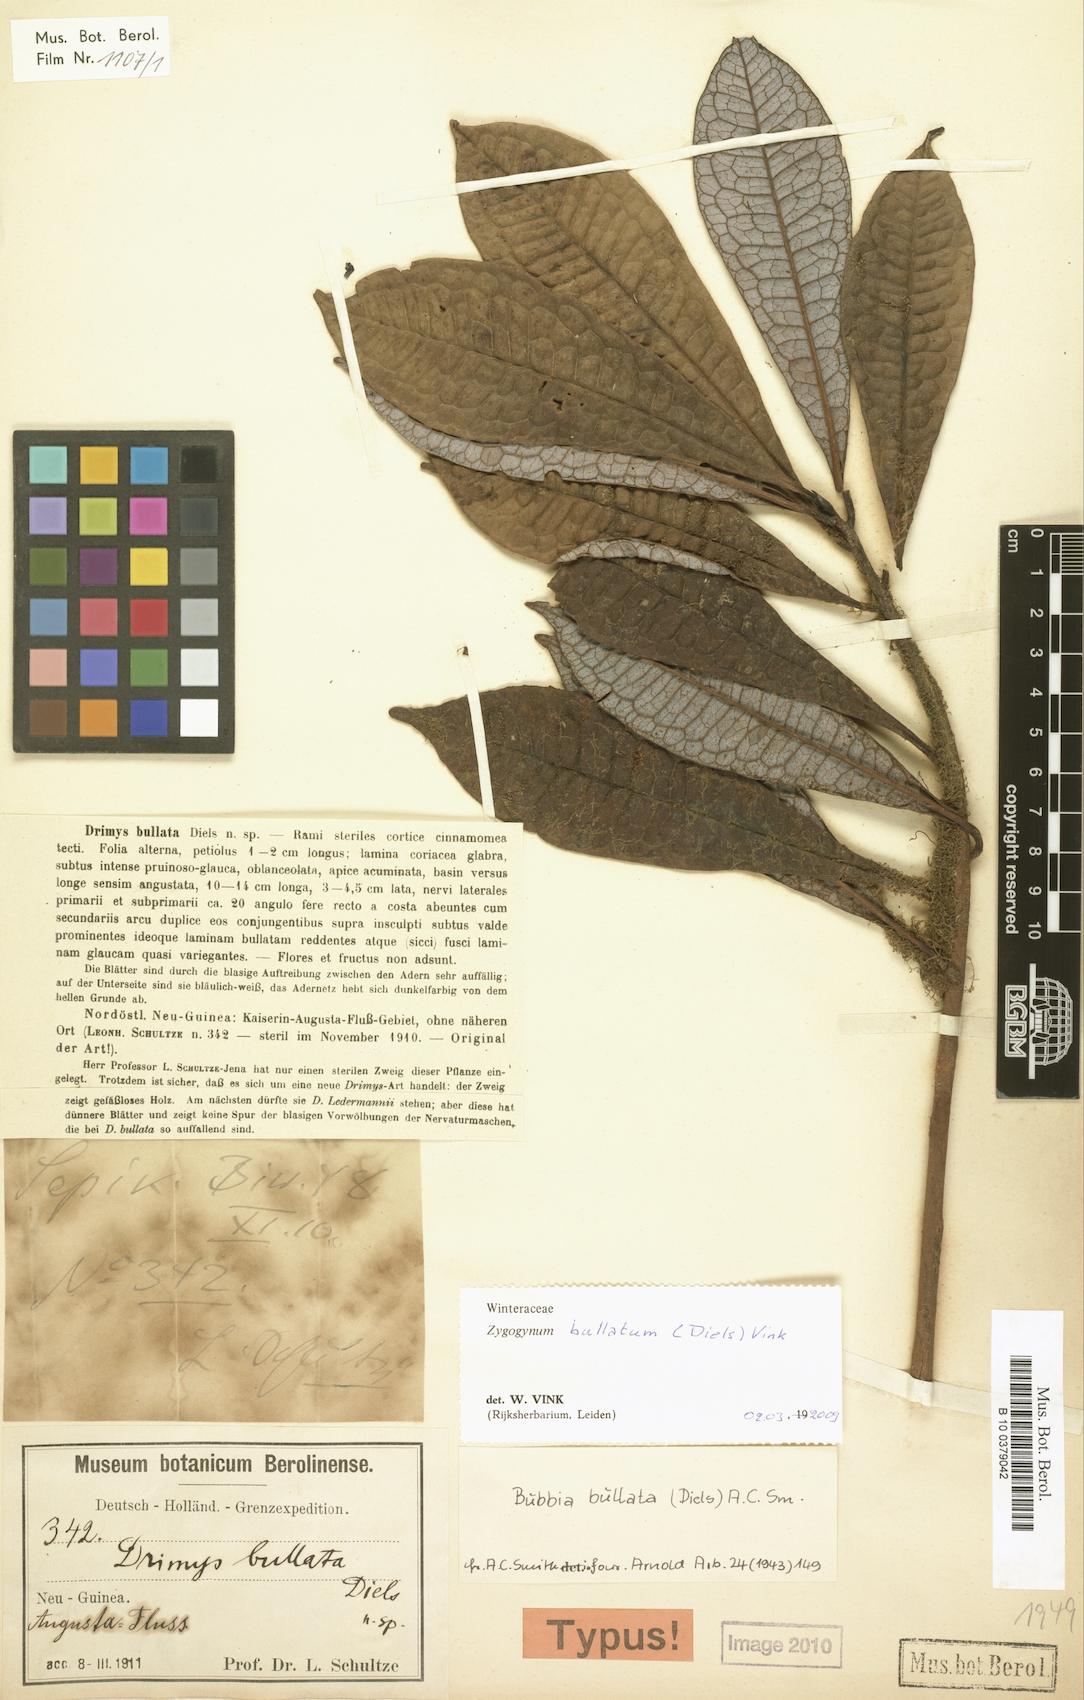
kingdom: Plantae
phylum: Tracheophyta
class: Magnoliopsida
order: Canellales
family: Winteraceae
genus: Zygogynum
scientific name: Zygogynum bullatum
